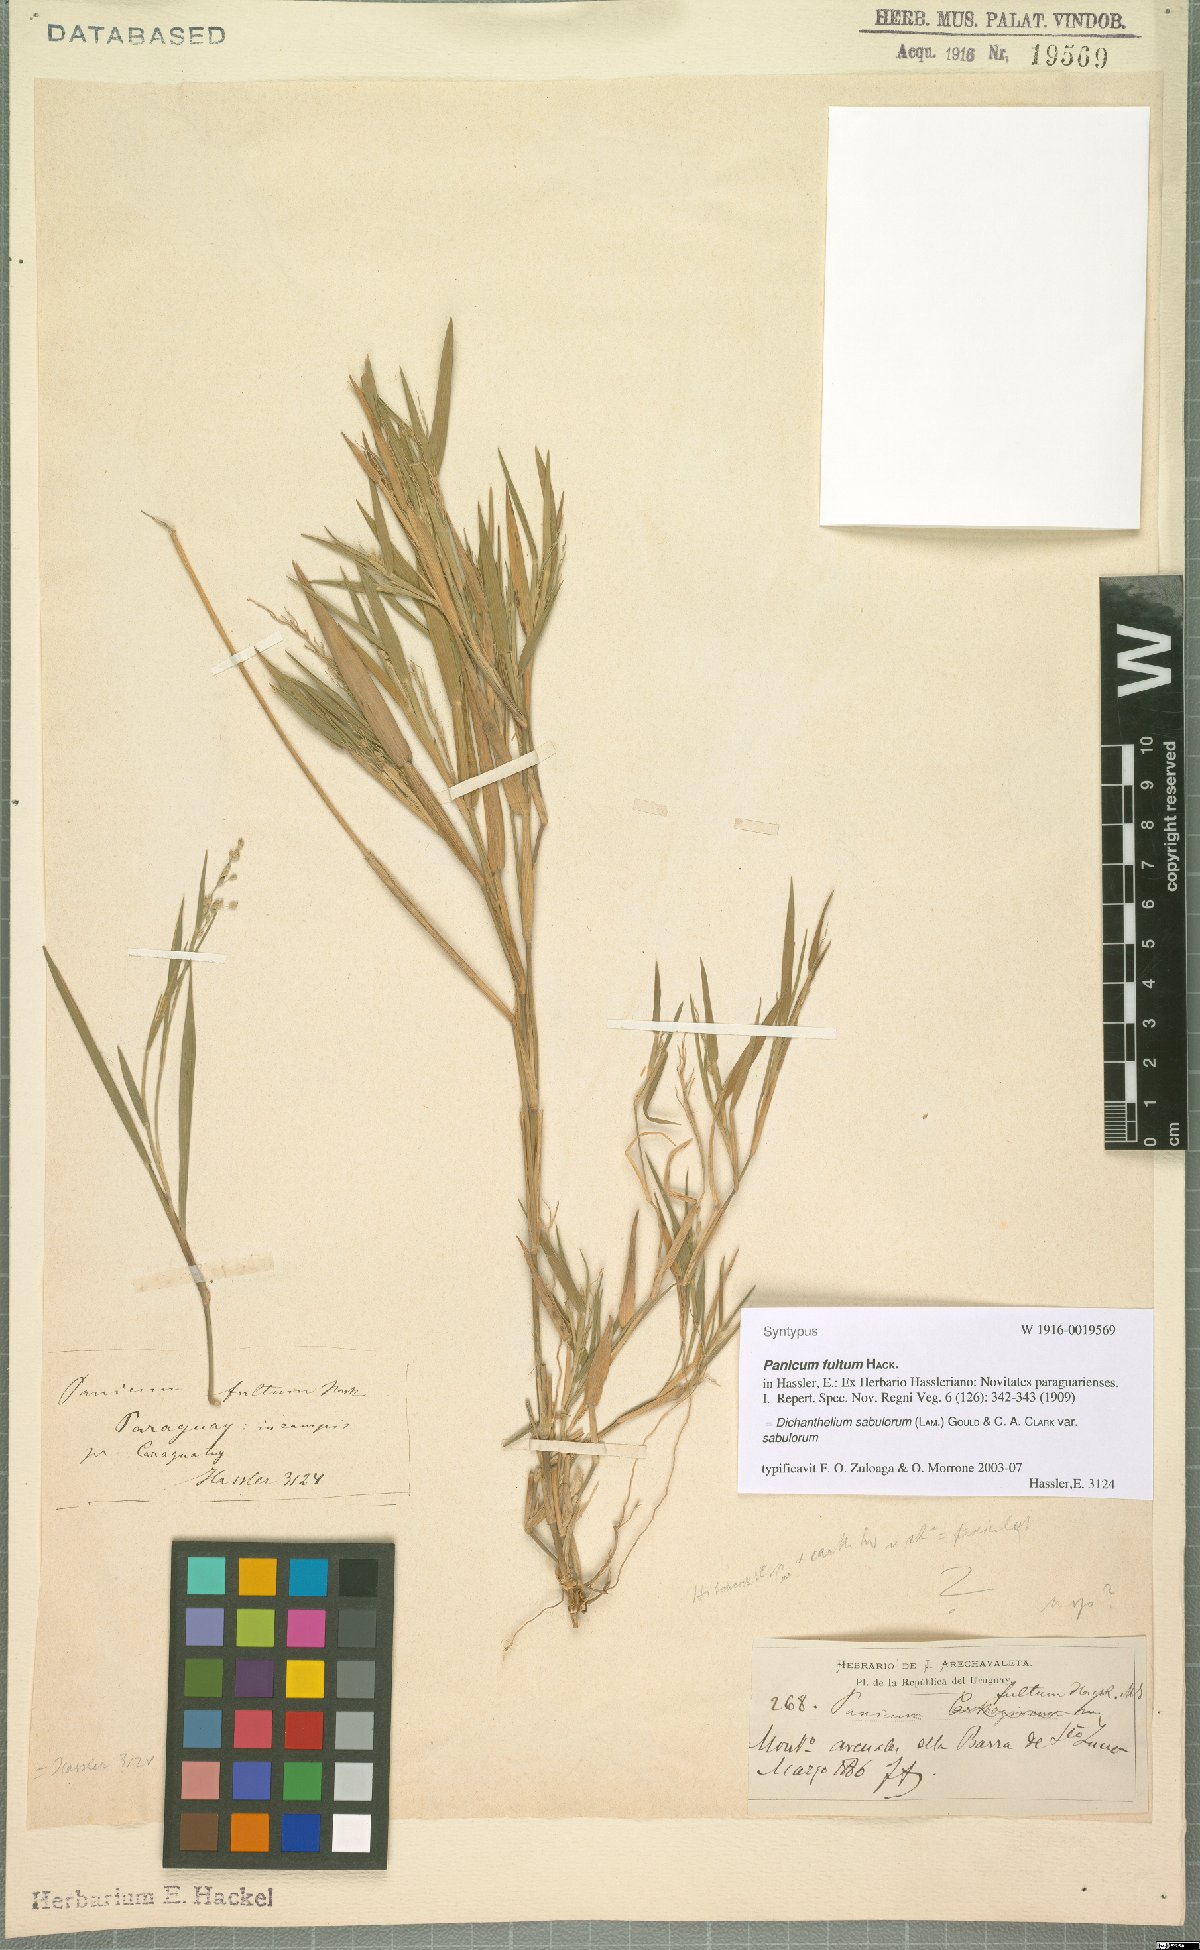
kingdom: Plantae
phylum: Tracheophyta
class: Liliopsida
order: Poales
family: Poaceae
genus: Dichanthelium
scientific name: Dichanthelium sabulorum
